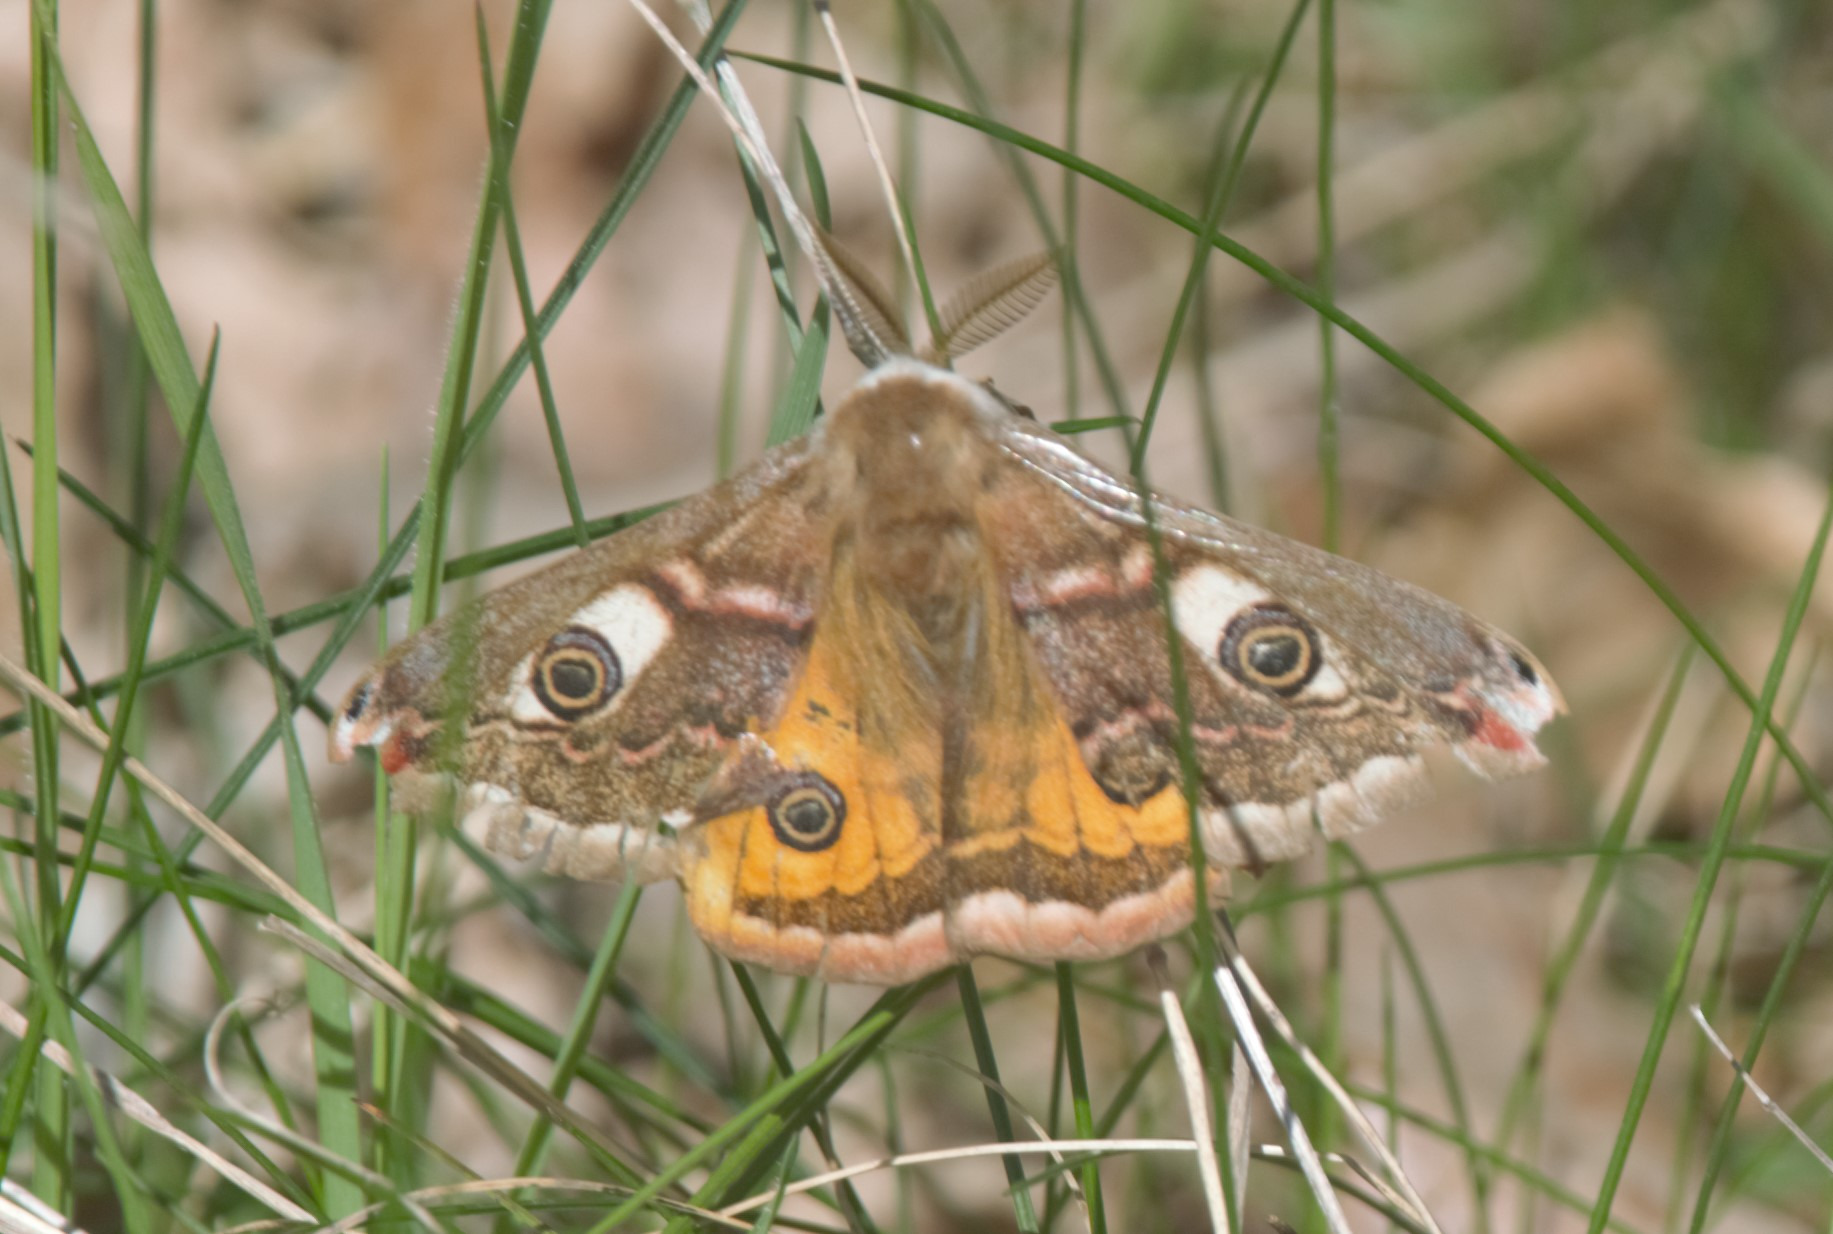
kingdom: Animalia
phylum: Arthropoda
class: Insecta
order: Lepidoptera
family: Saturniidae
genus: Saturnia
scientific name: Saturnia pavonia
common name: Lille natpåfugleøje
